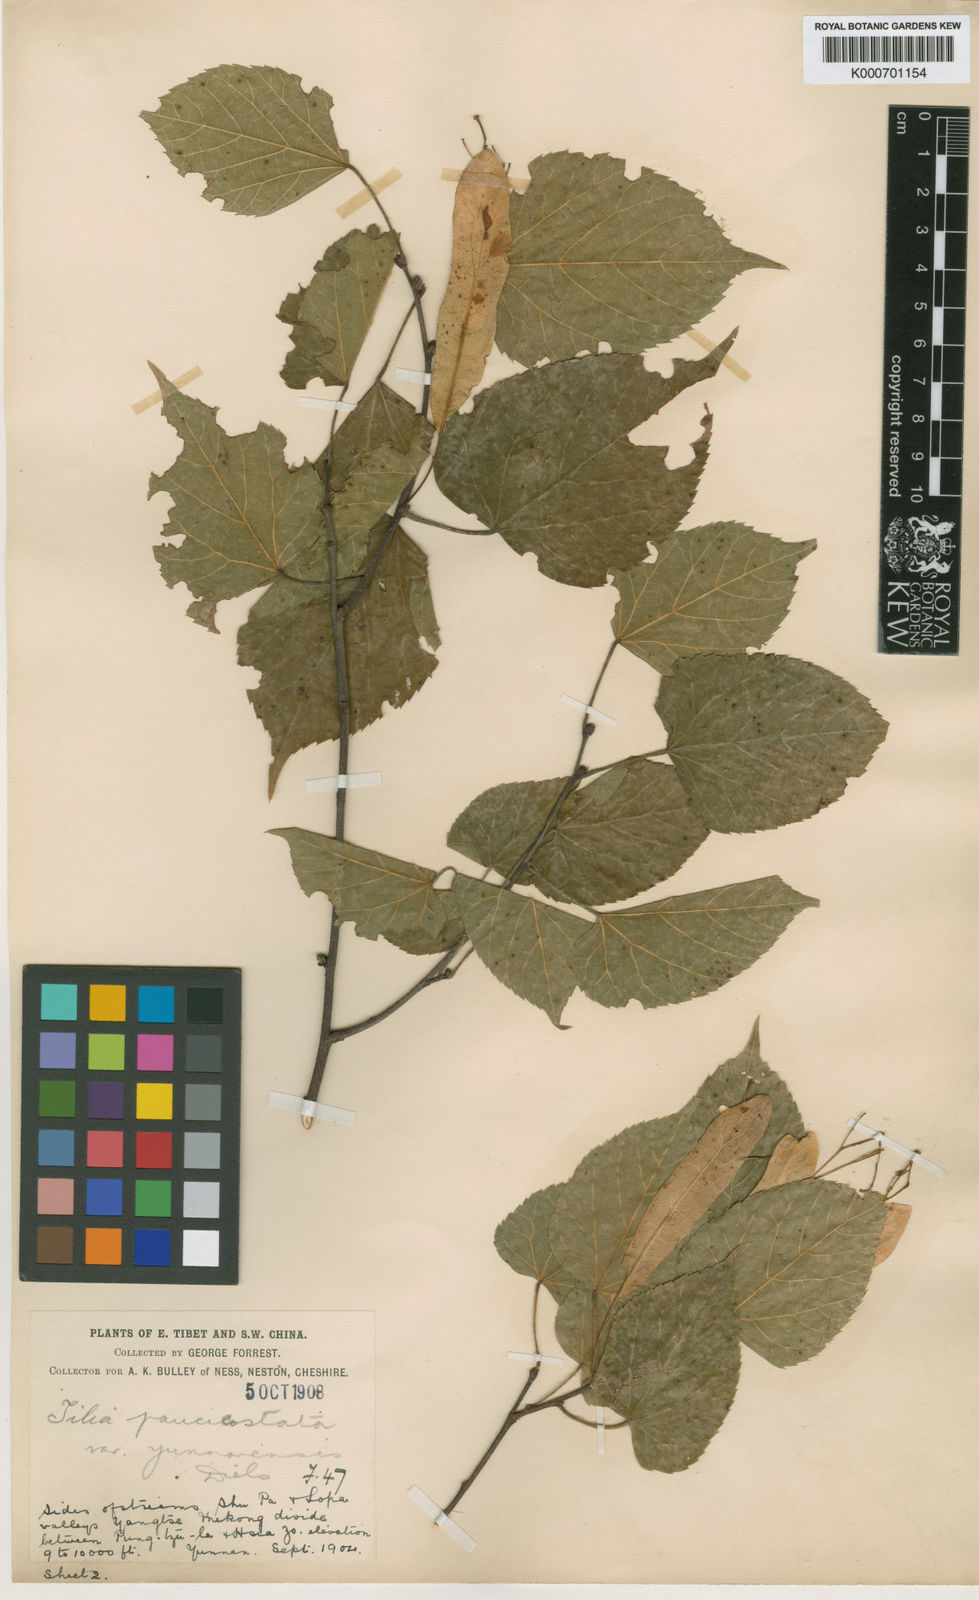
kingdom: Plantae
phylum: Tracheophyta
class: Magnoliopsida
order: Malvales
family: Malvaceae
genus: Tilia
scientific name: Tilia paucicostata
